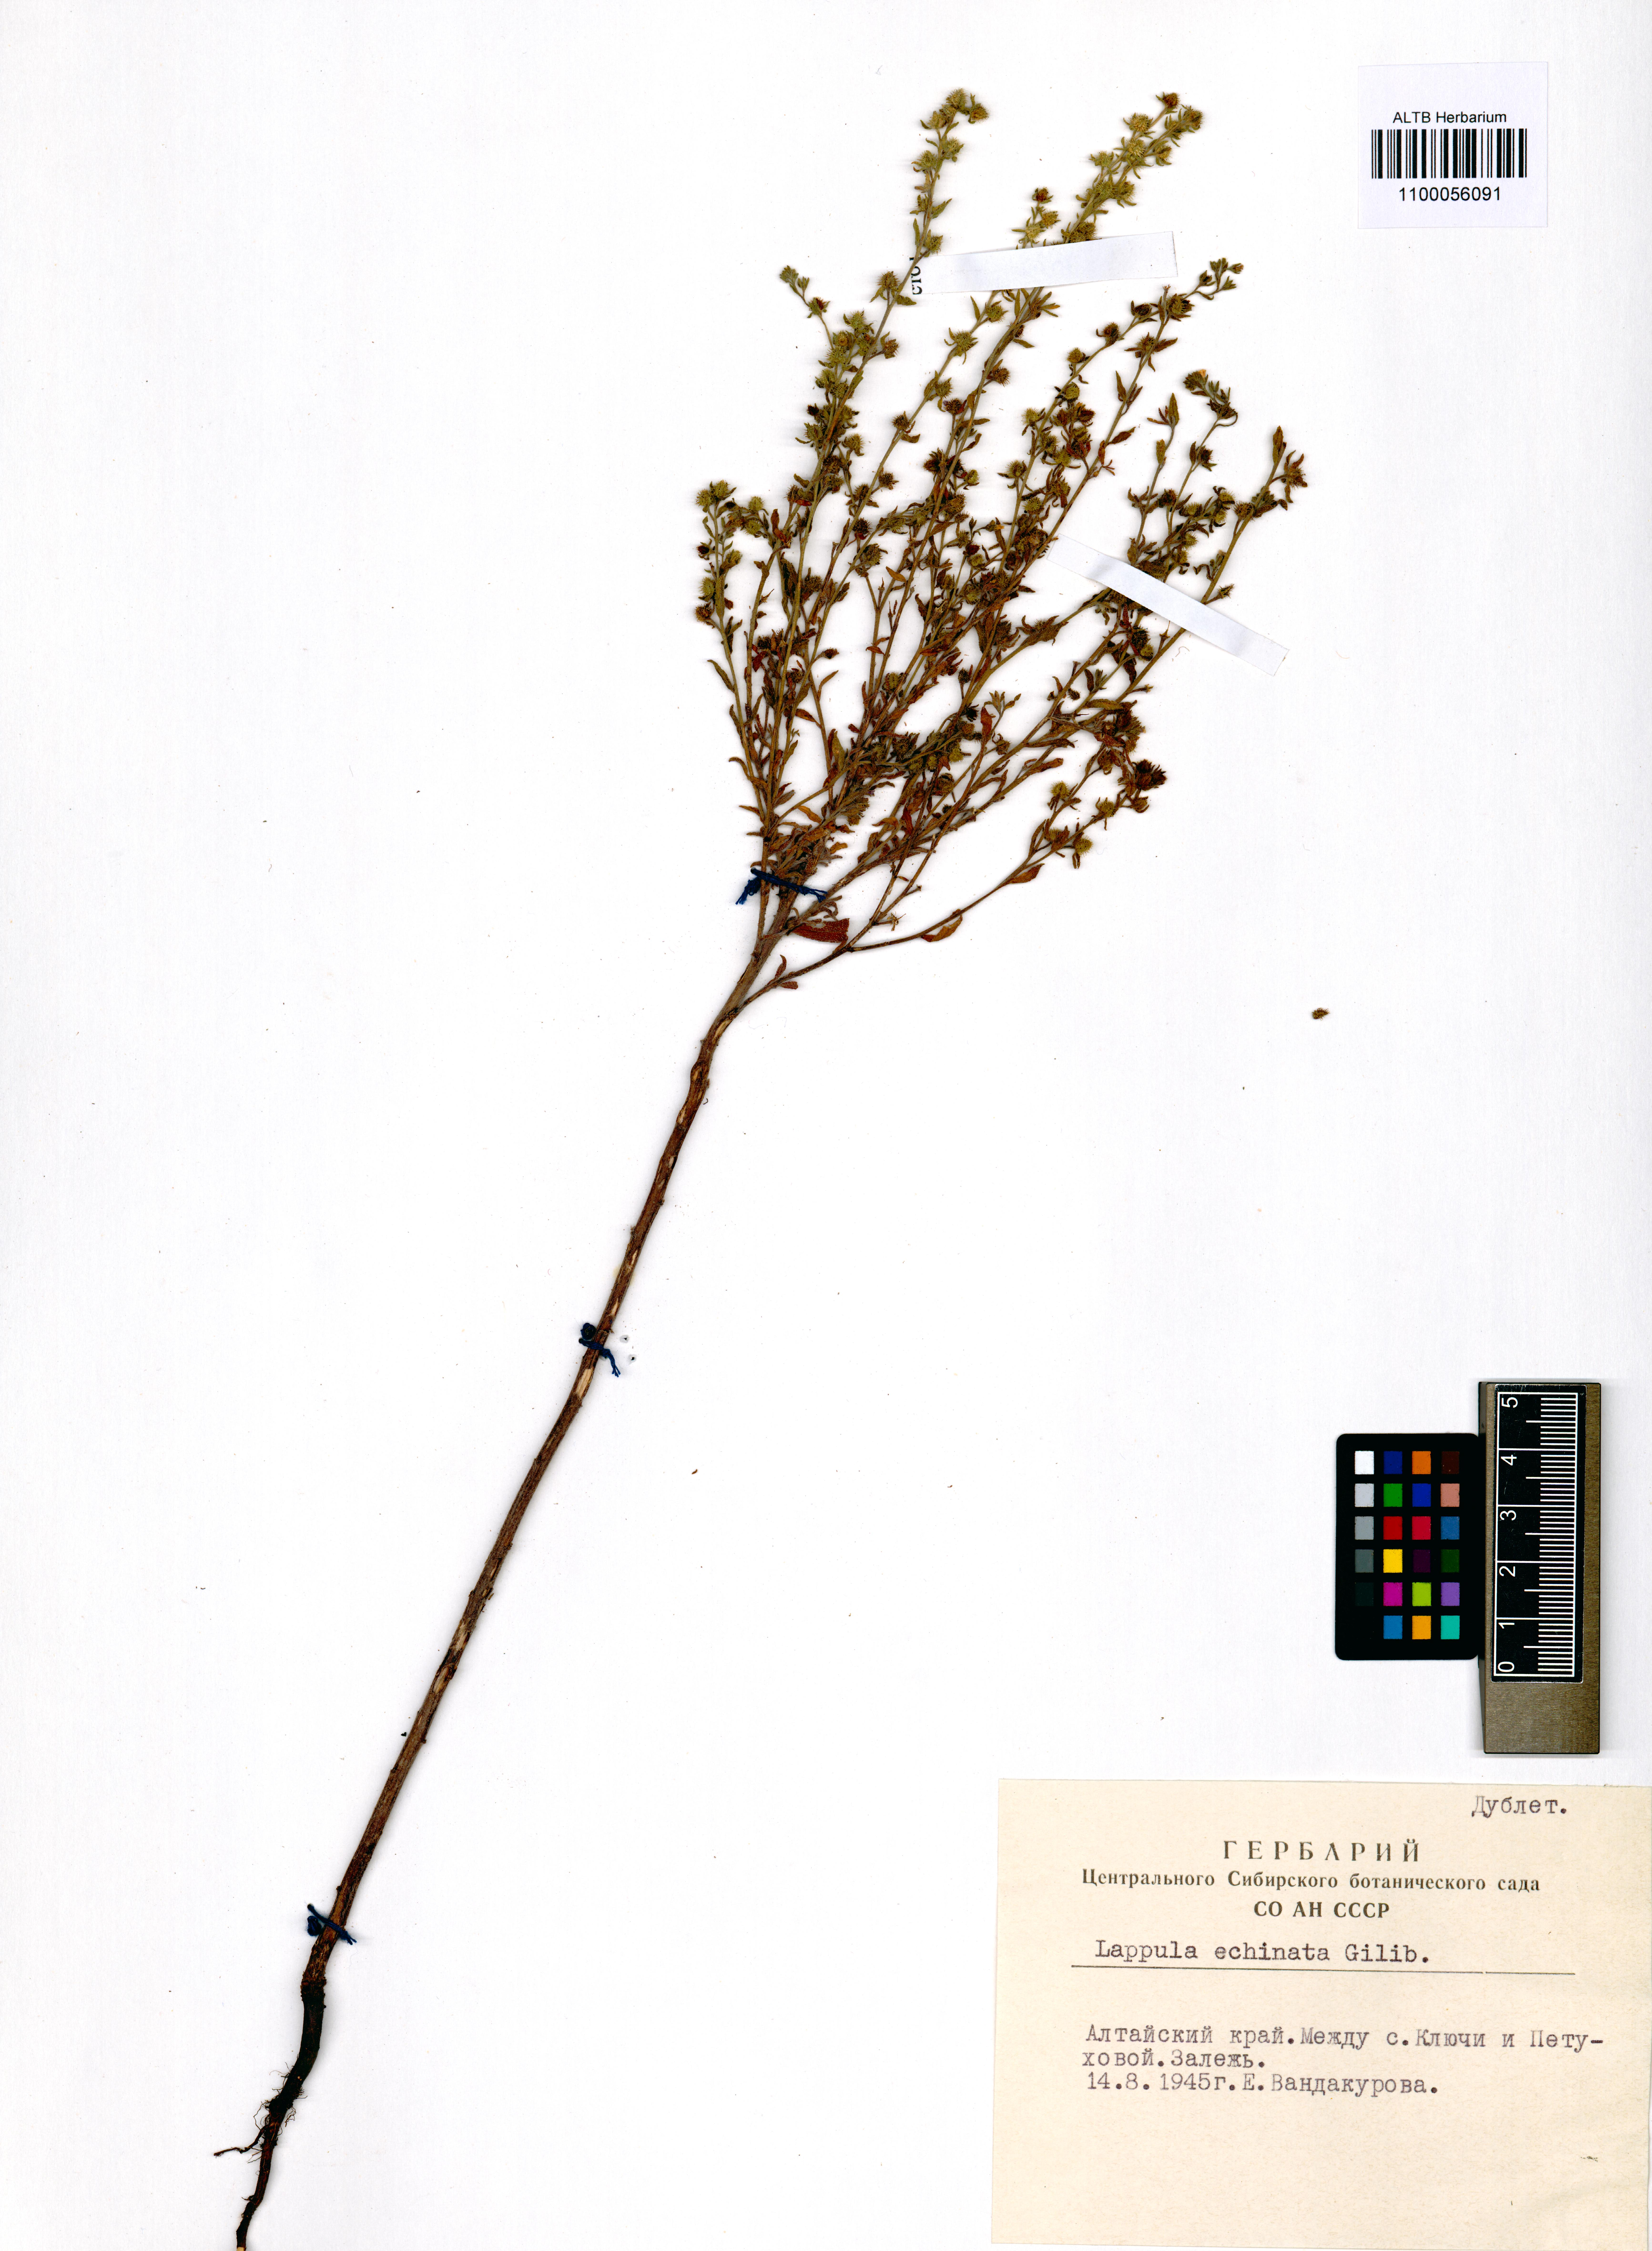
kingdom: Plantae
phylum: Tracheophyta
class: Magnoliopsida
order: Boraginales
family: Boraginaceae
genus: Lappula
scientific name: Lappula squarrosa
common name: European stickseed
